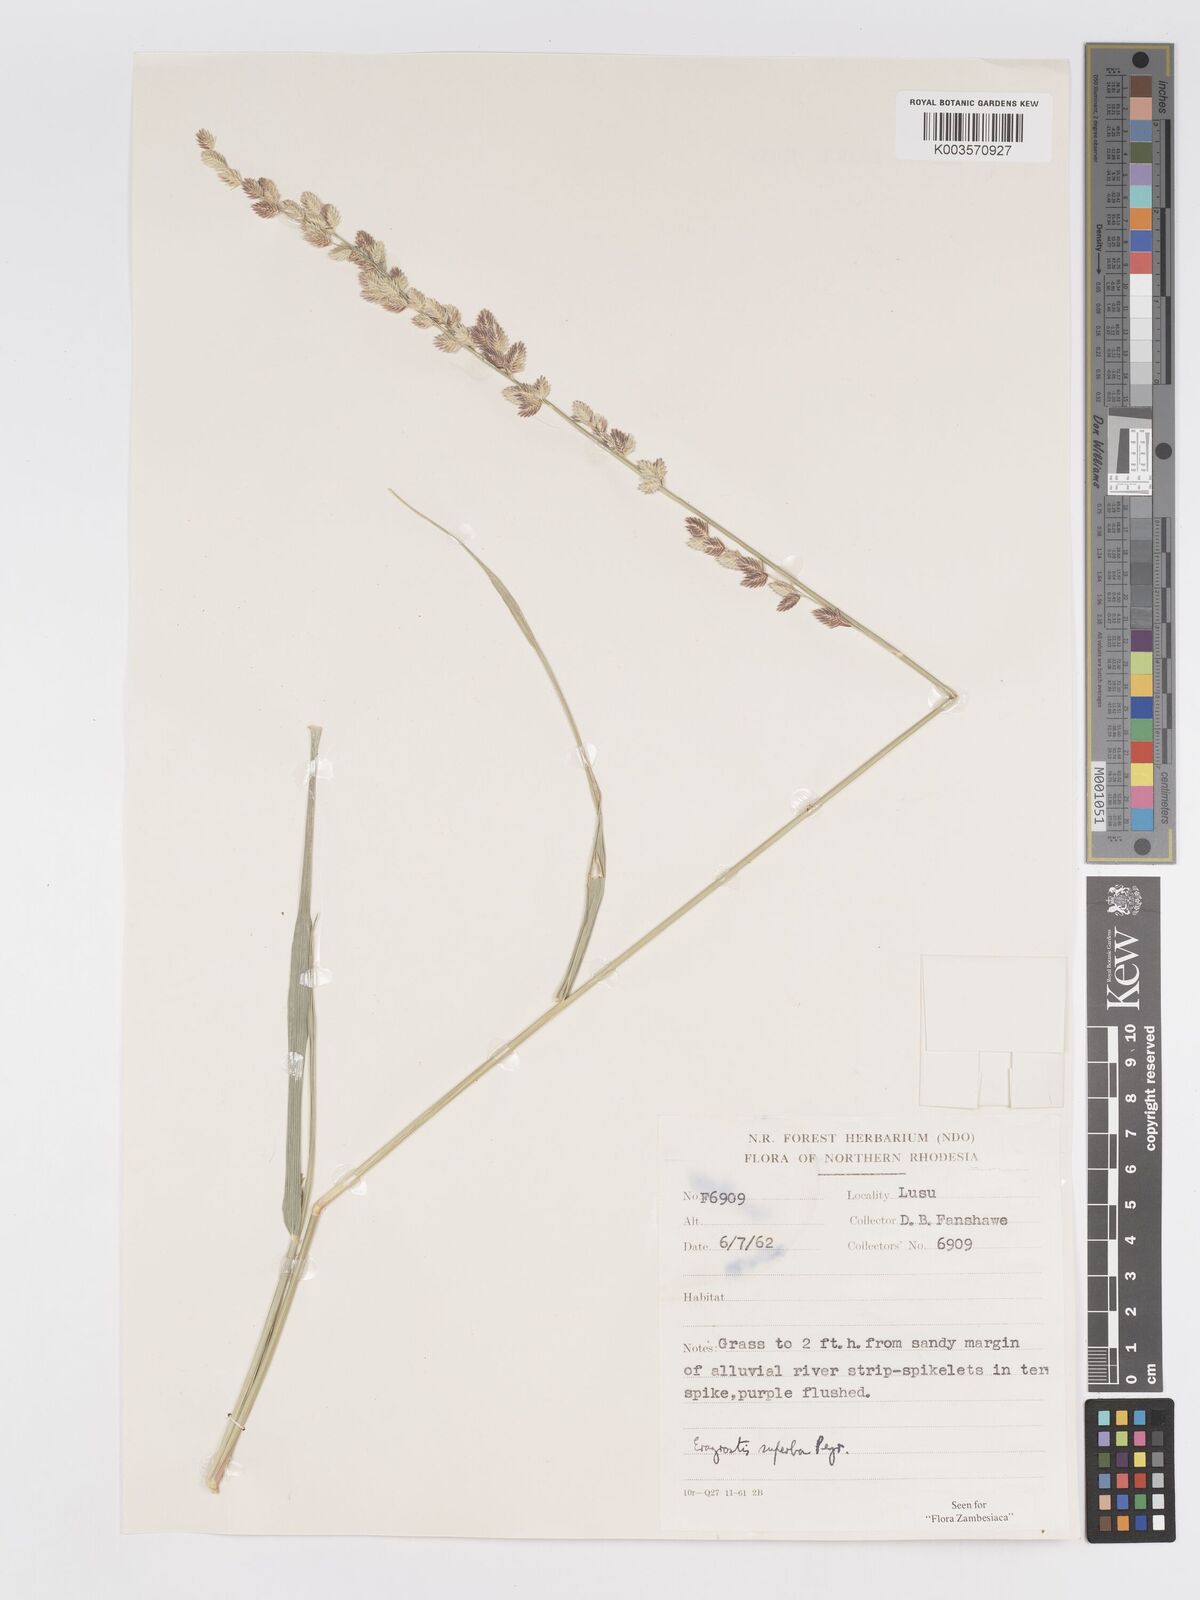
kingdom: Plantae
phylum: Tracheophyta
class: Liliopsida
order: Poales
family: Poaceae
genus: Eragrostis
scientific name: Eragrostis superba
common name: Wilman lovegrass
